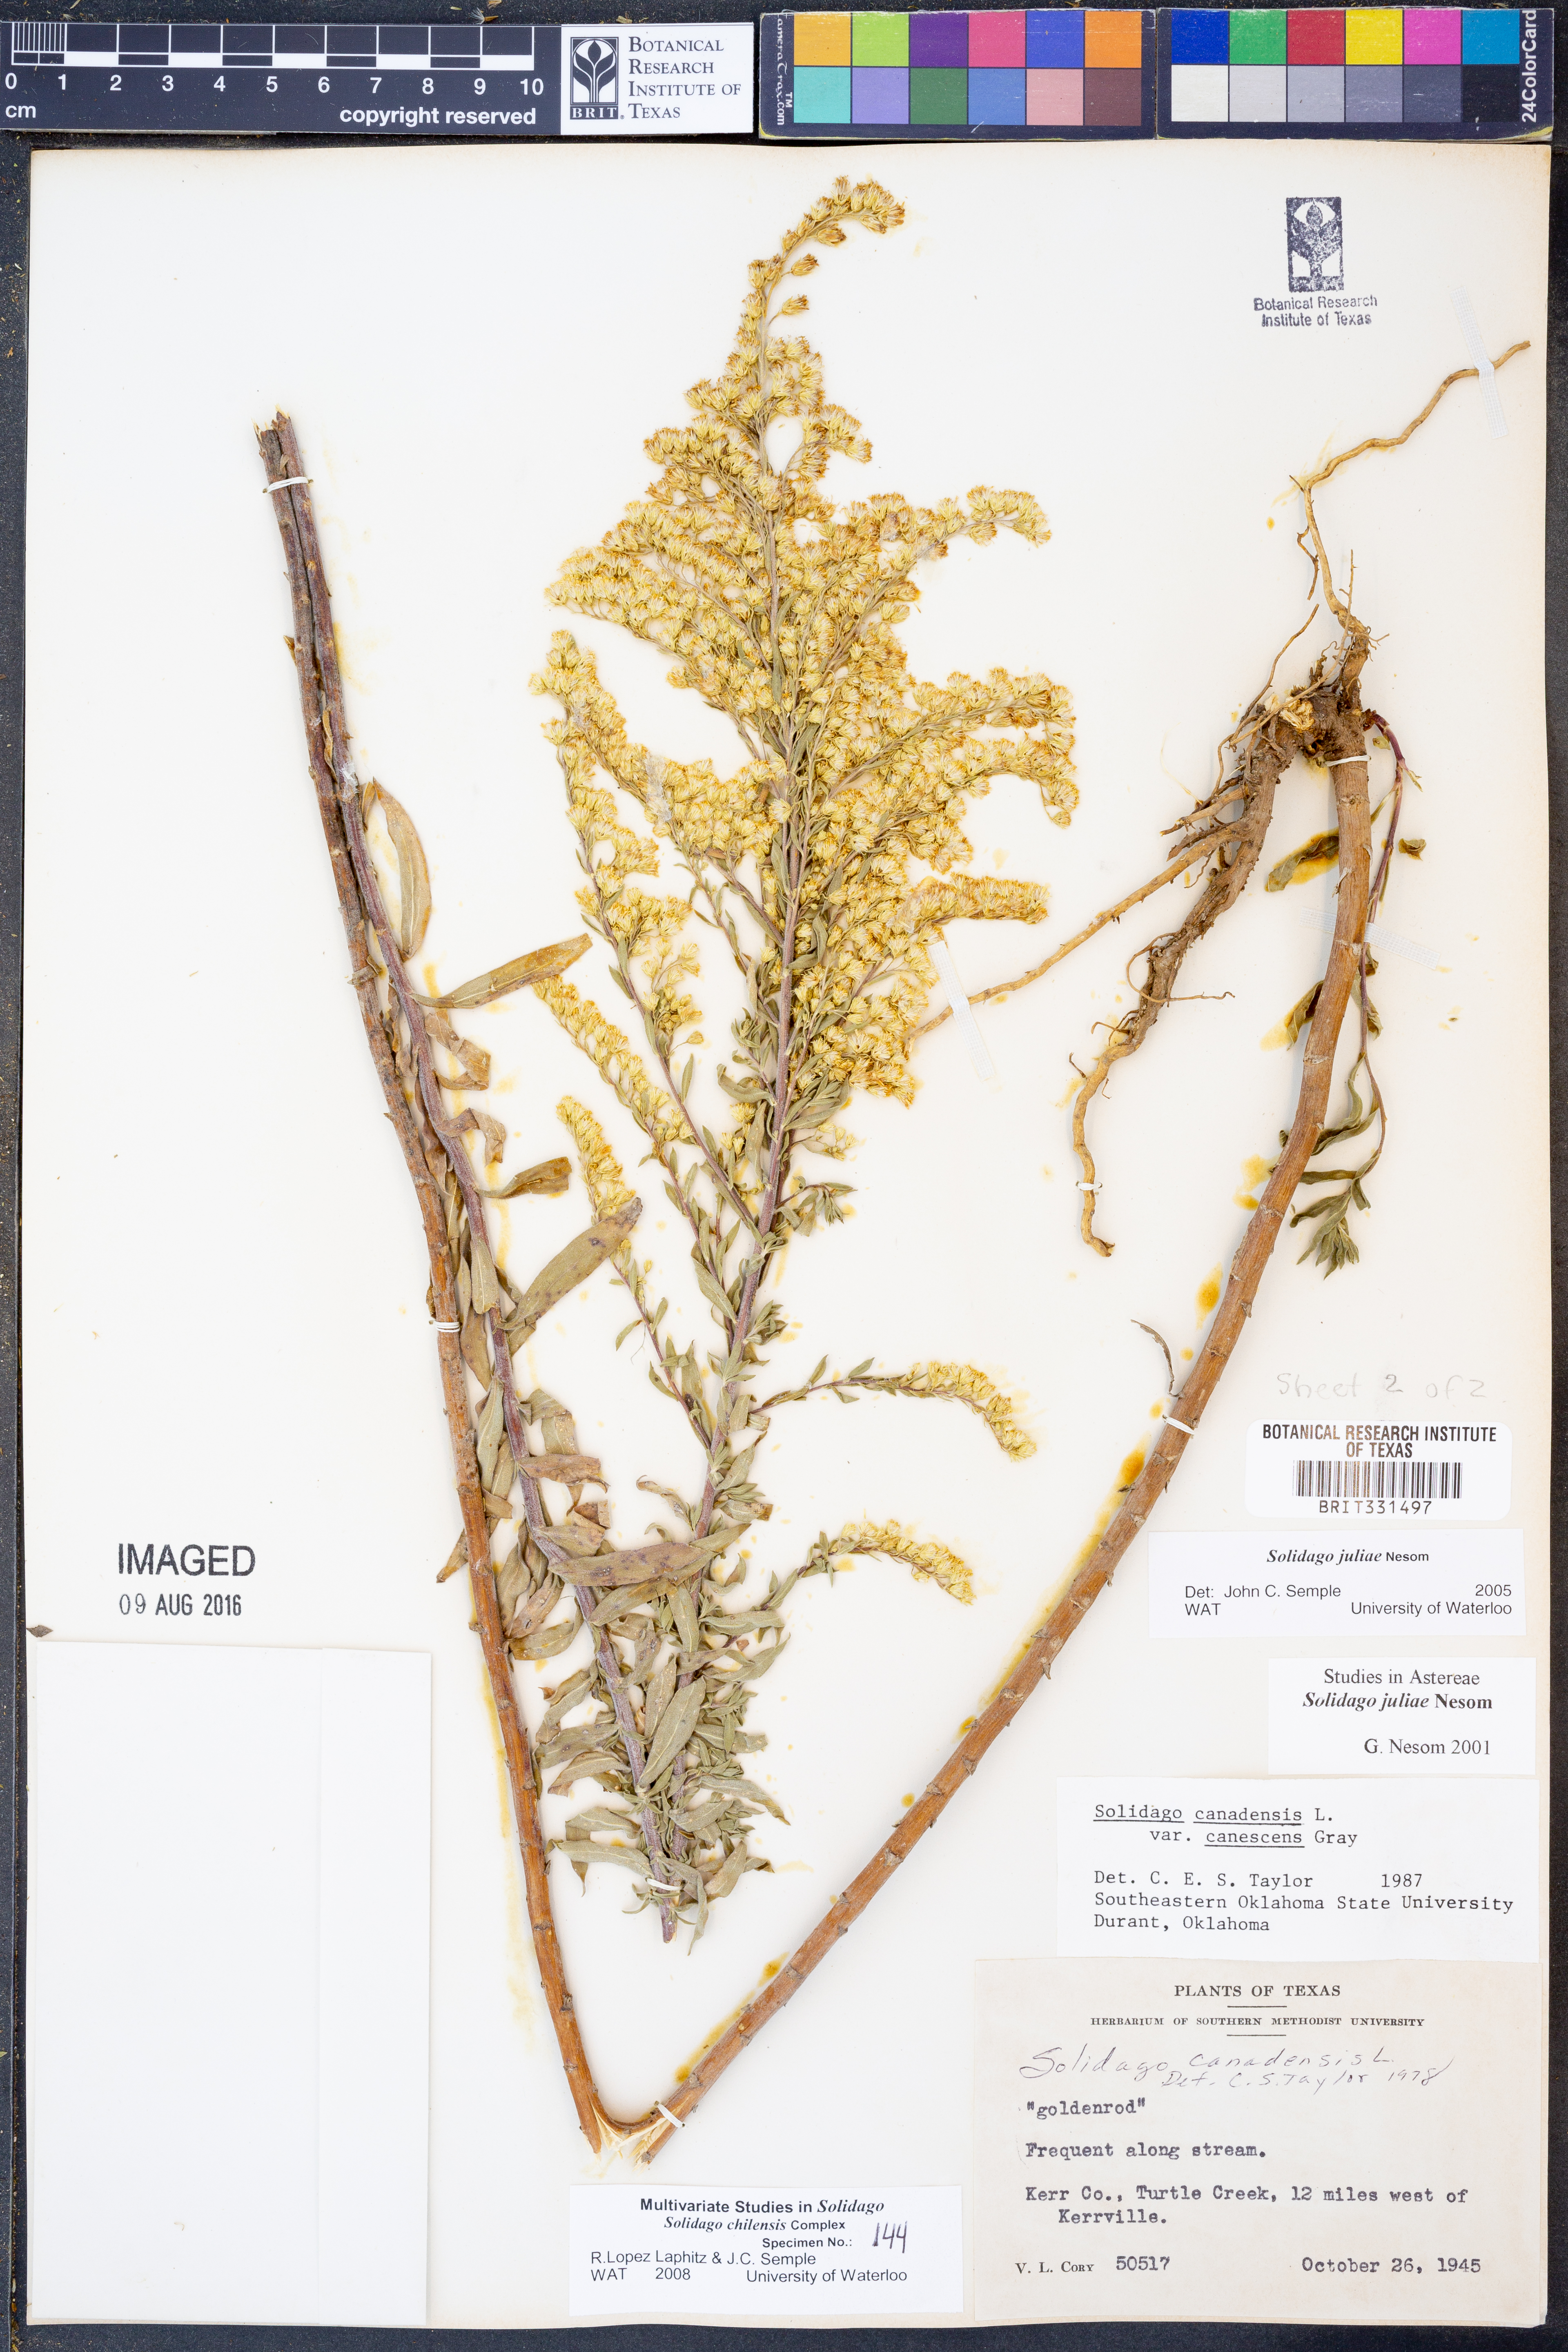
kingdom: Plantae
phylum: Tracheophyta
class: Magnoliopsida
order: Asterales
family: Asteraceae
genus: Solidago
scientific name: Solidago juliae
